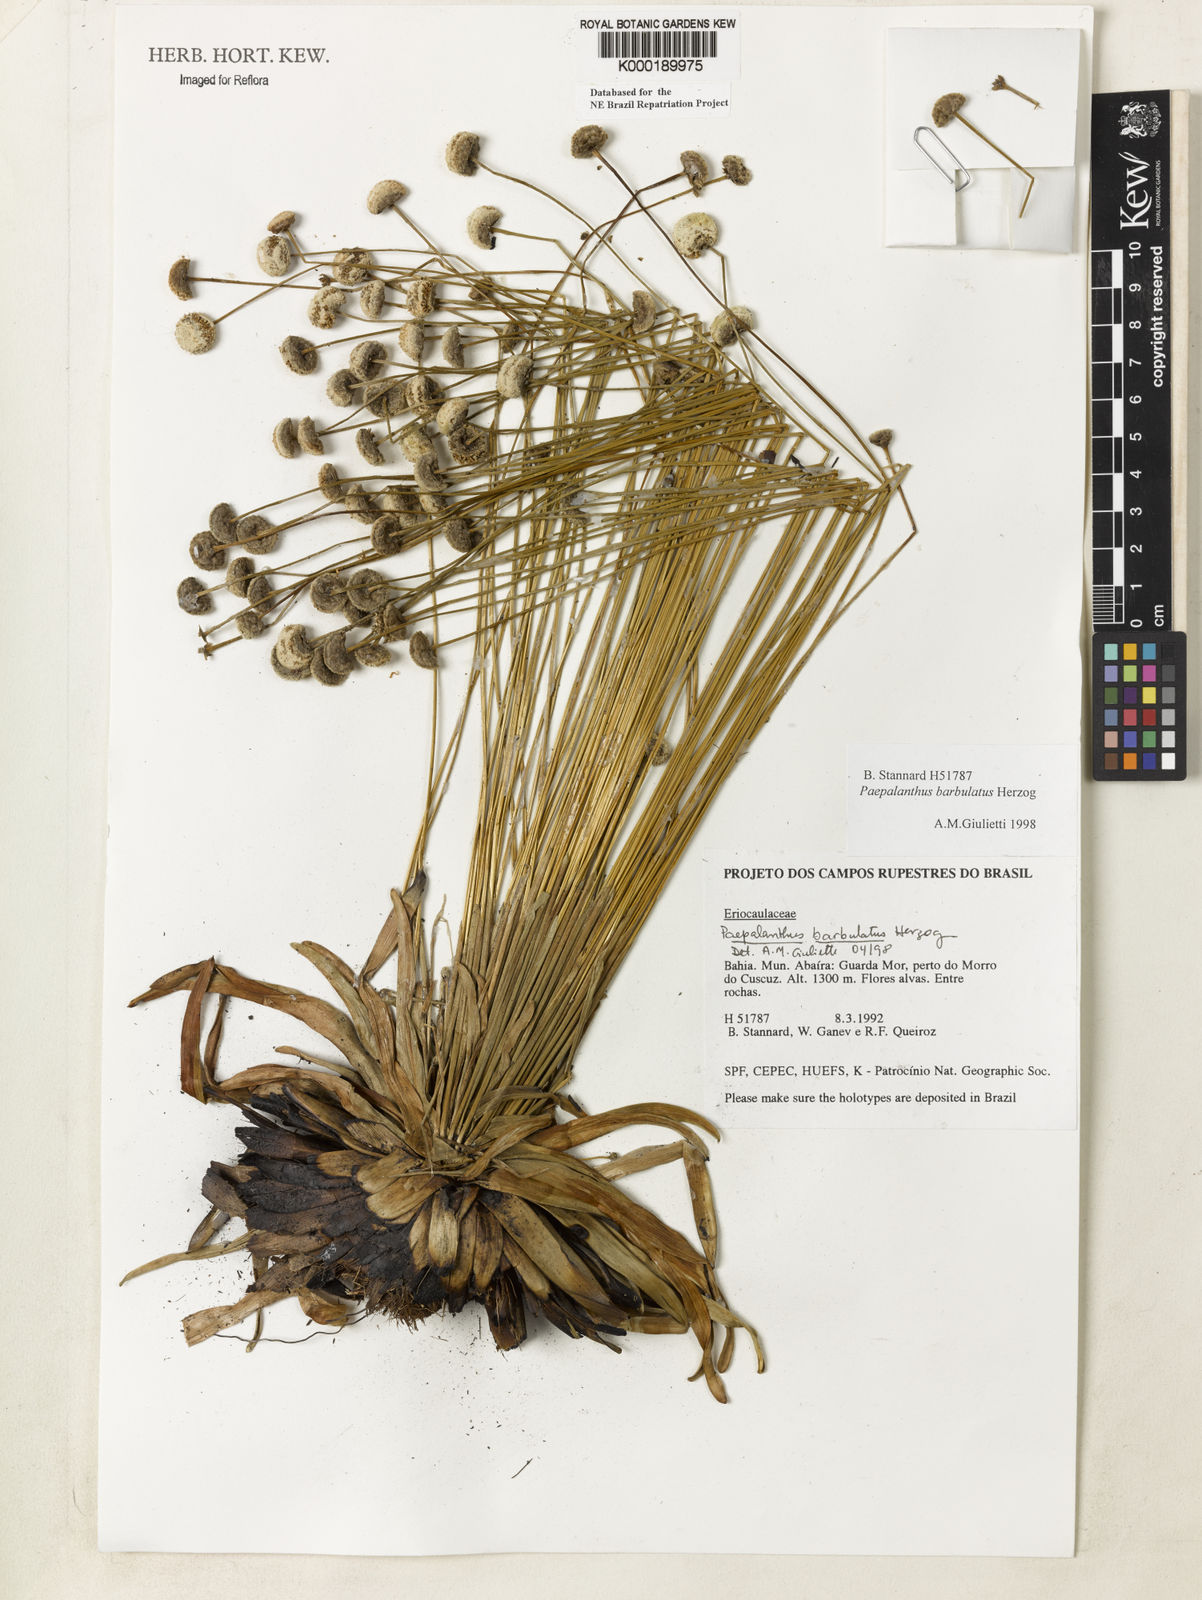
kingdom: Plantae
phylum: Tracheophyta
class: Liliopsida
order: Poales
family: Eriocaulaceae
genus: Paepalanthus
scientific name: Paepalanthus barbulatus
